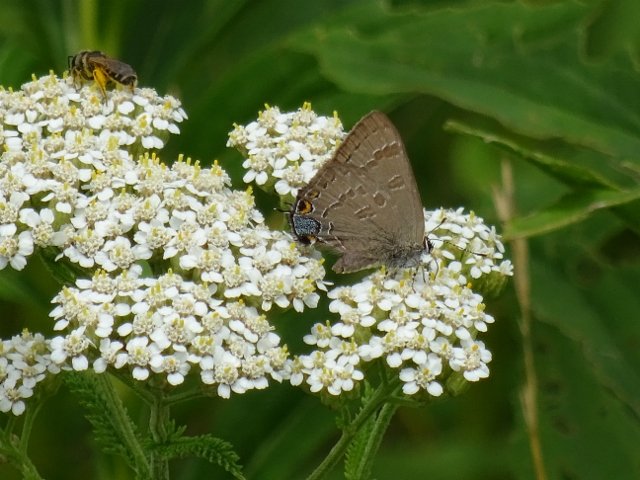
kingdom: Animalia
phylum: Arthropoda
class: Insecta
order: Lepidoptera
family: Lycaenidae
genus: Strymon
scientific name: Strymon caryaevorus
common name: Hickory Hairstreak
